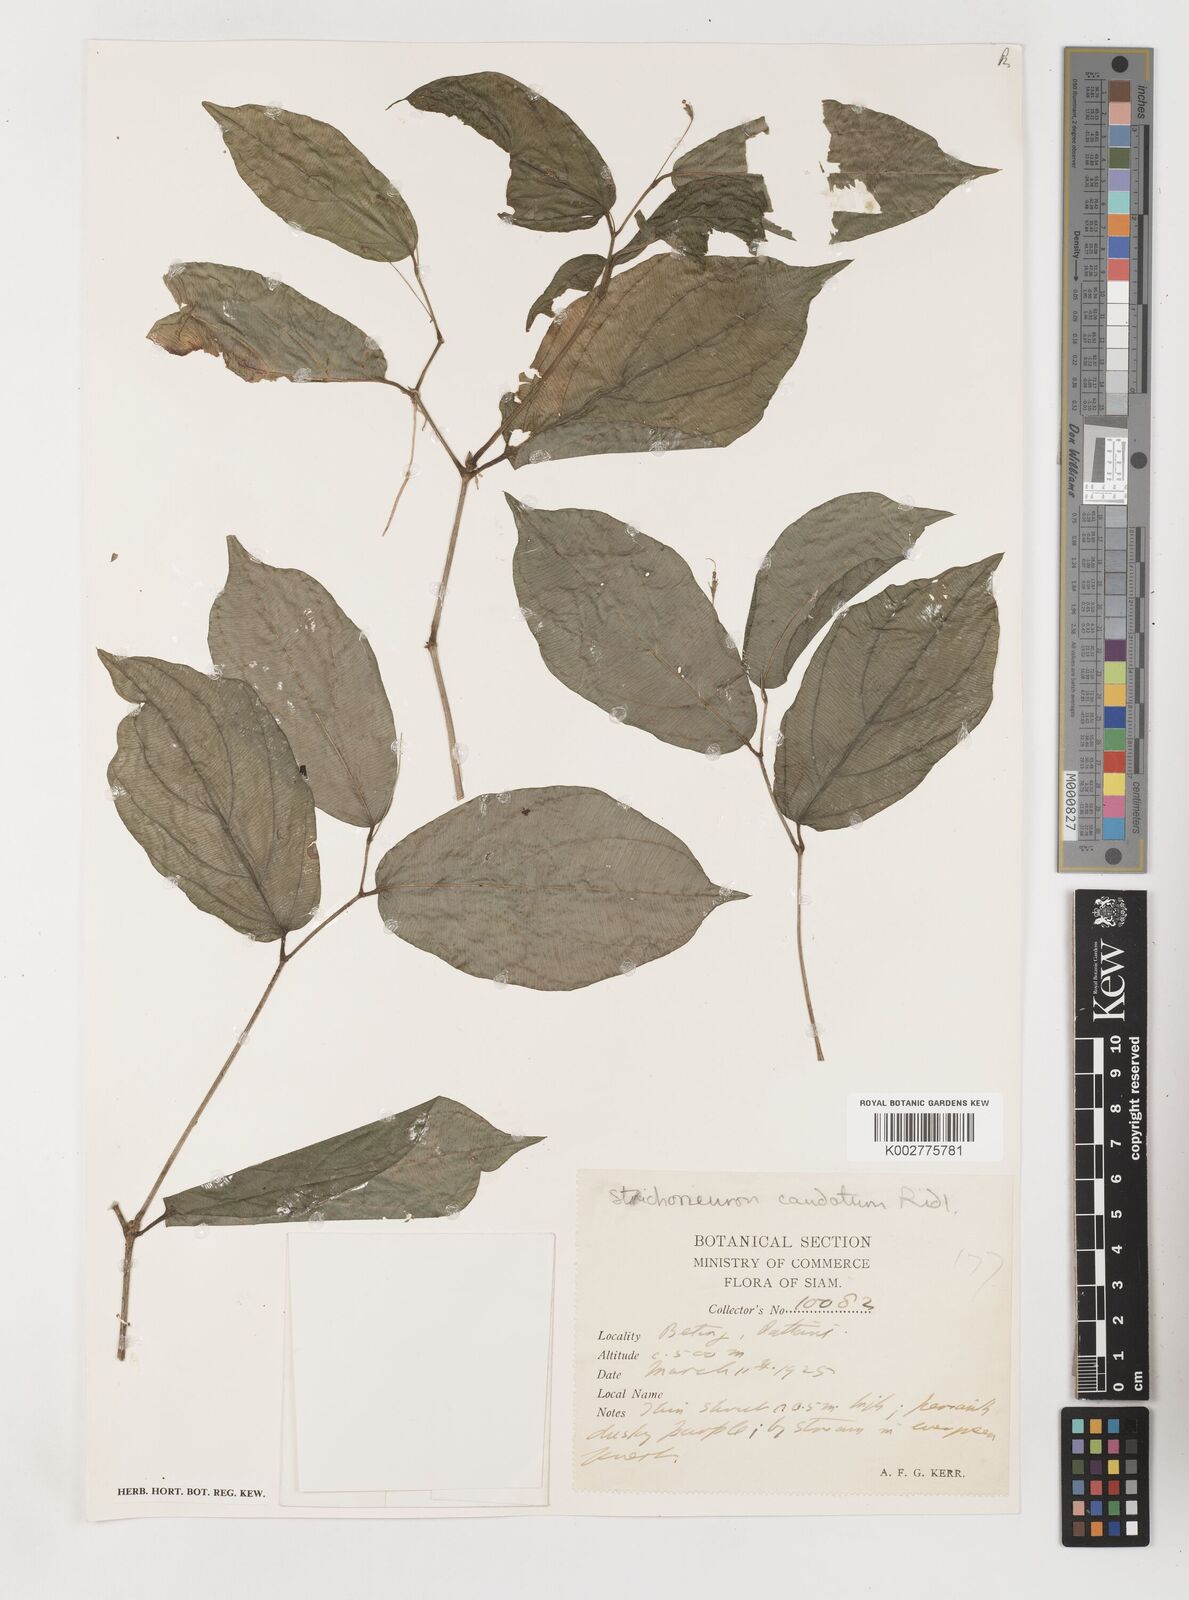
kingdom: Plantae
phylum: Tracheophyta
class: Liliopsida
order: Pandanales
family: Stemonaceae
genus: Stichoneuron
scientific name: Stichoneuron caudatum
